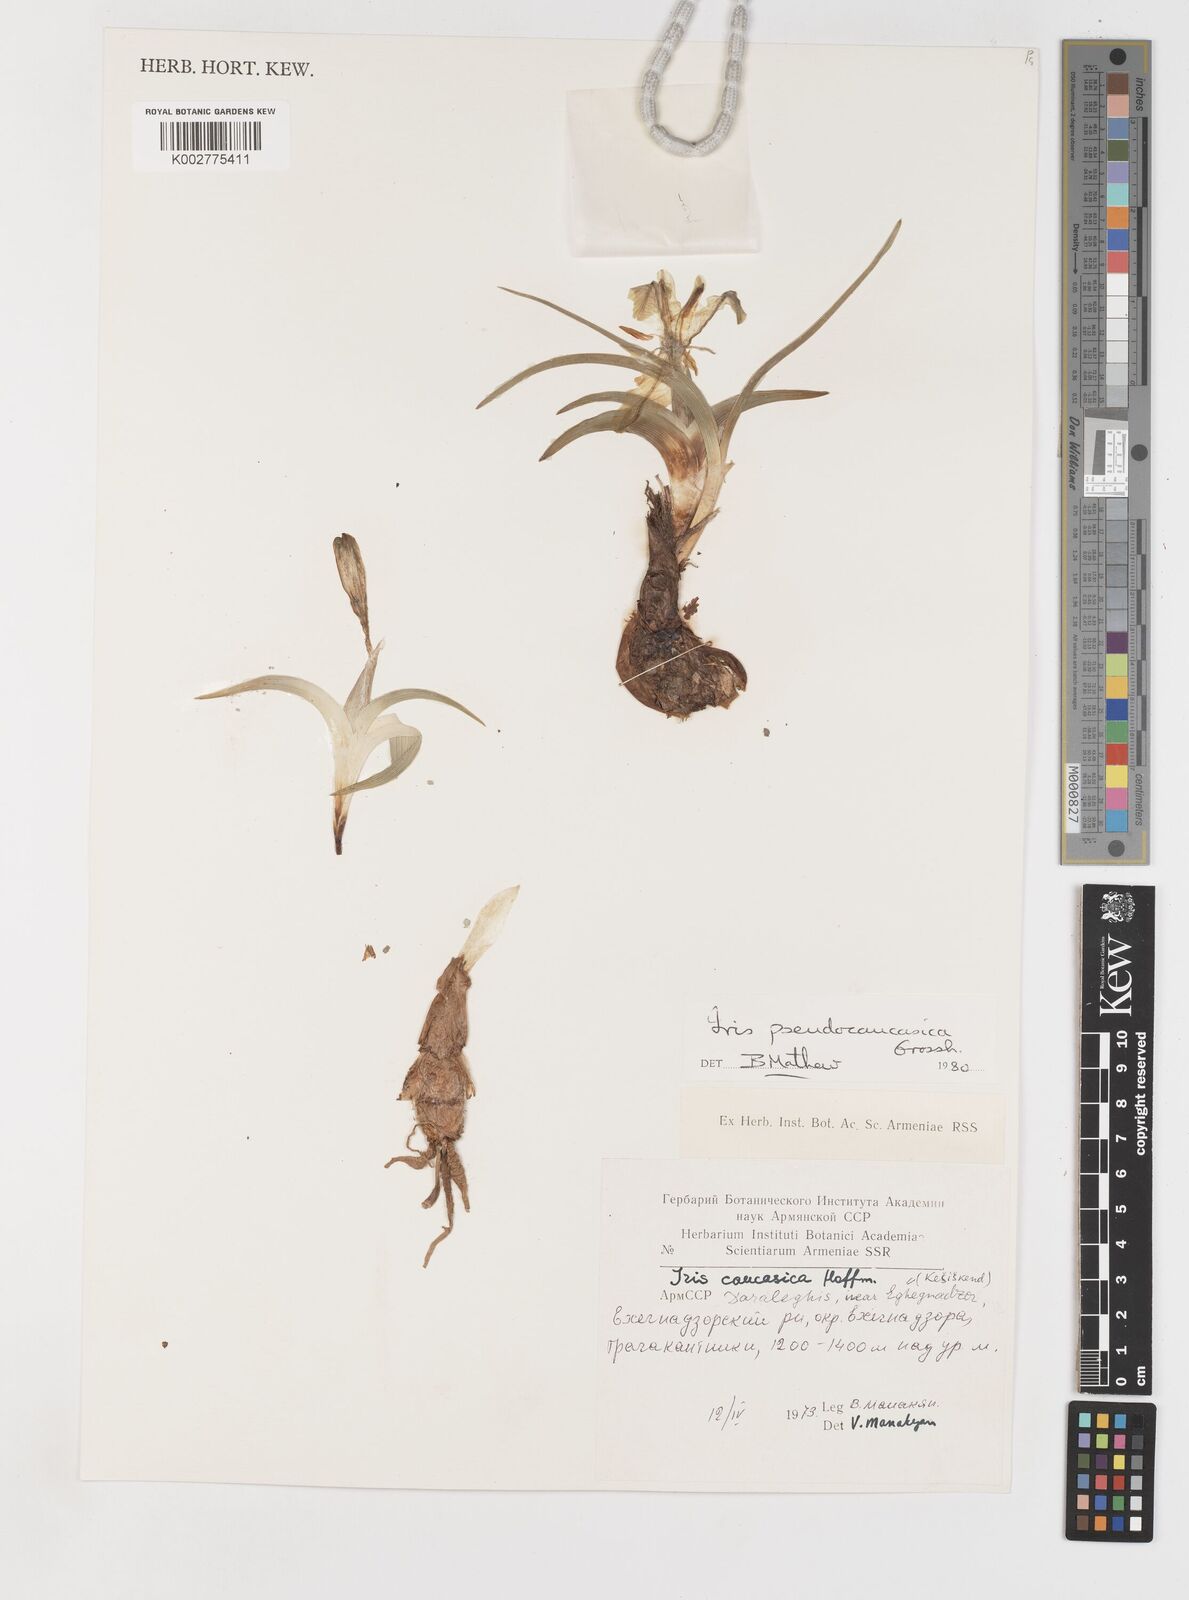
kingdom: Plantae
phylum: Tracheophyta
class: Liliopsida
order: Asparagales
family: Iridaceae
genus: Iris
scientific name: Iris pseudocaucasica
